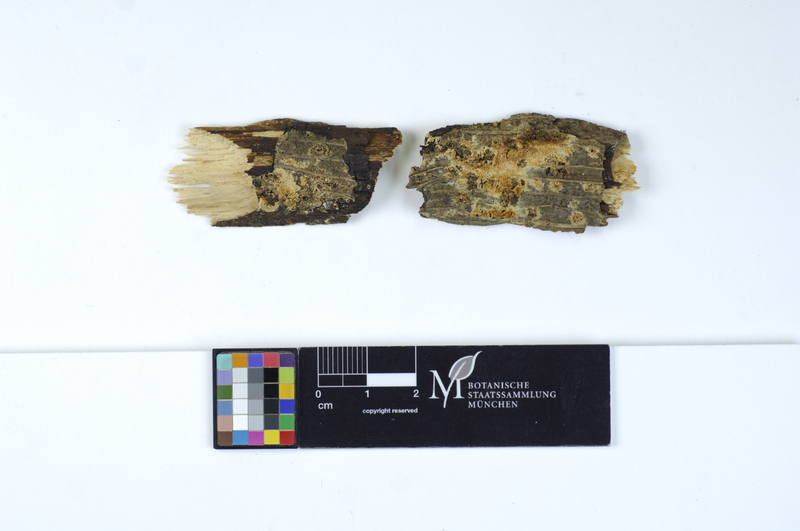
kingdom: Fungi
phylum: Basidiomycota
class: Agaricomycetes
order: Hymenochaetales
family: Schizoporaceae
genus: Xylodon
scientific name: Xylodon flaviporus
